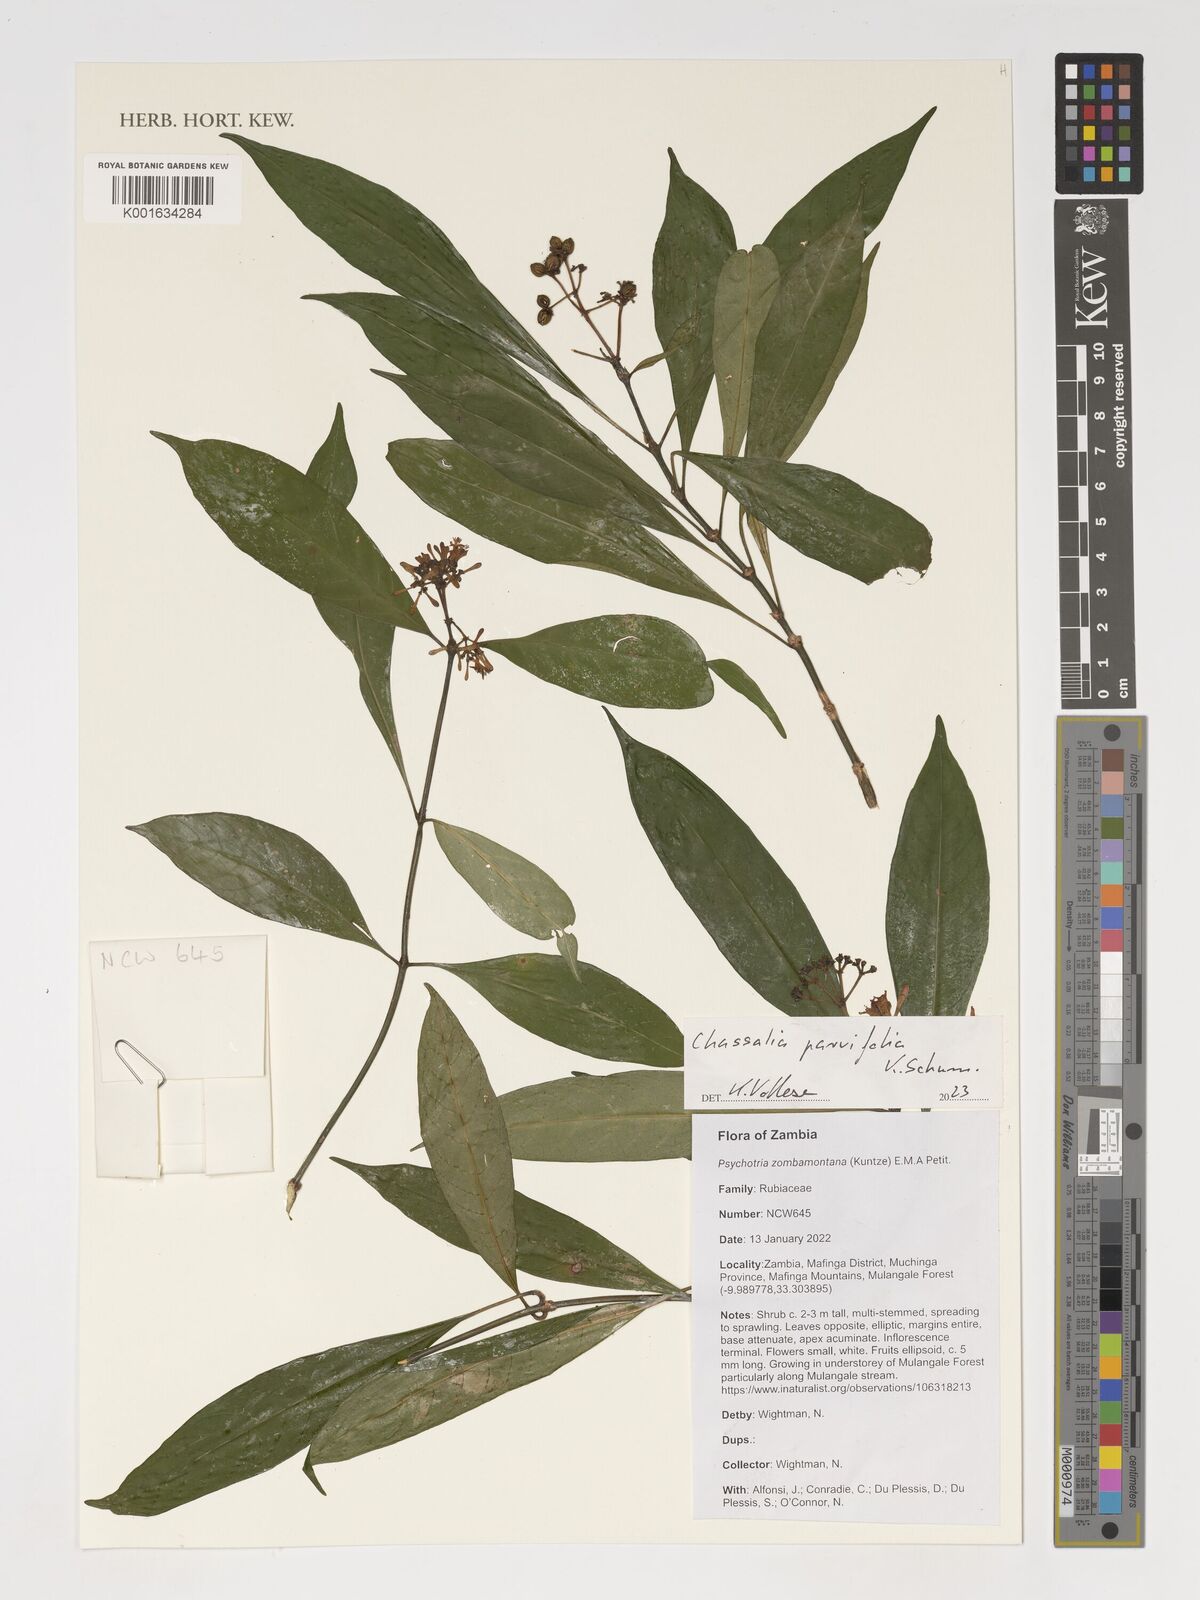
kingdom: Plantae
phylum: Tracheophyta
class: Magnoliopsida
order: Gentianales
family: Rubiaceae
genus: Chassalia
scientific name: Chassalia parvifolia
